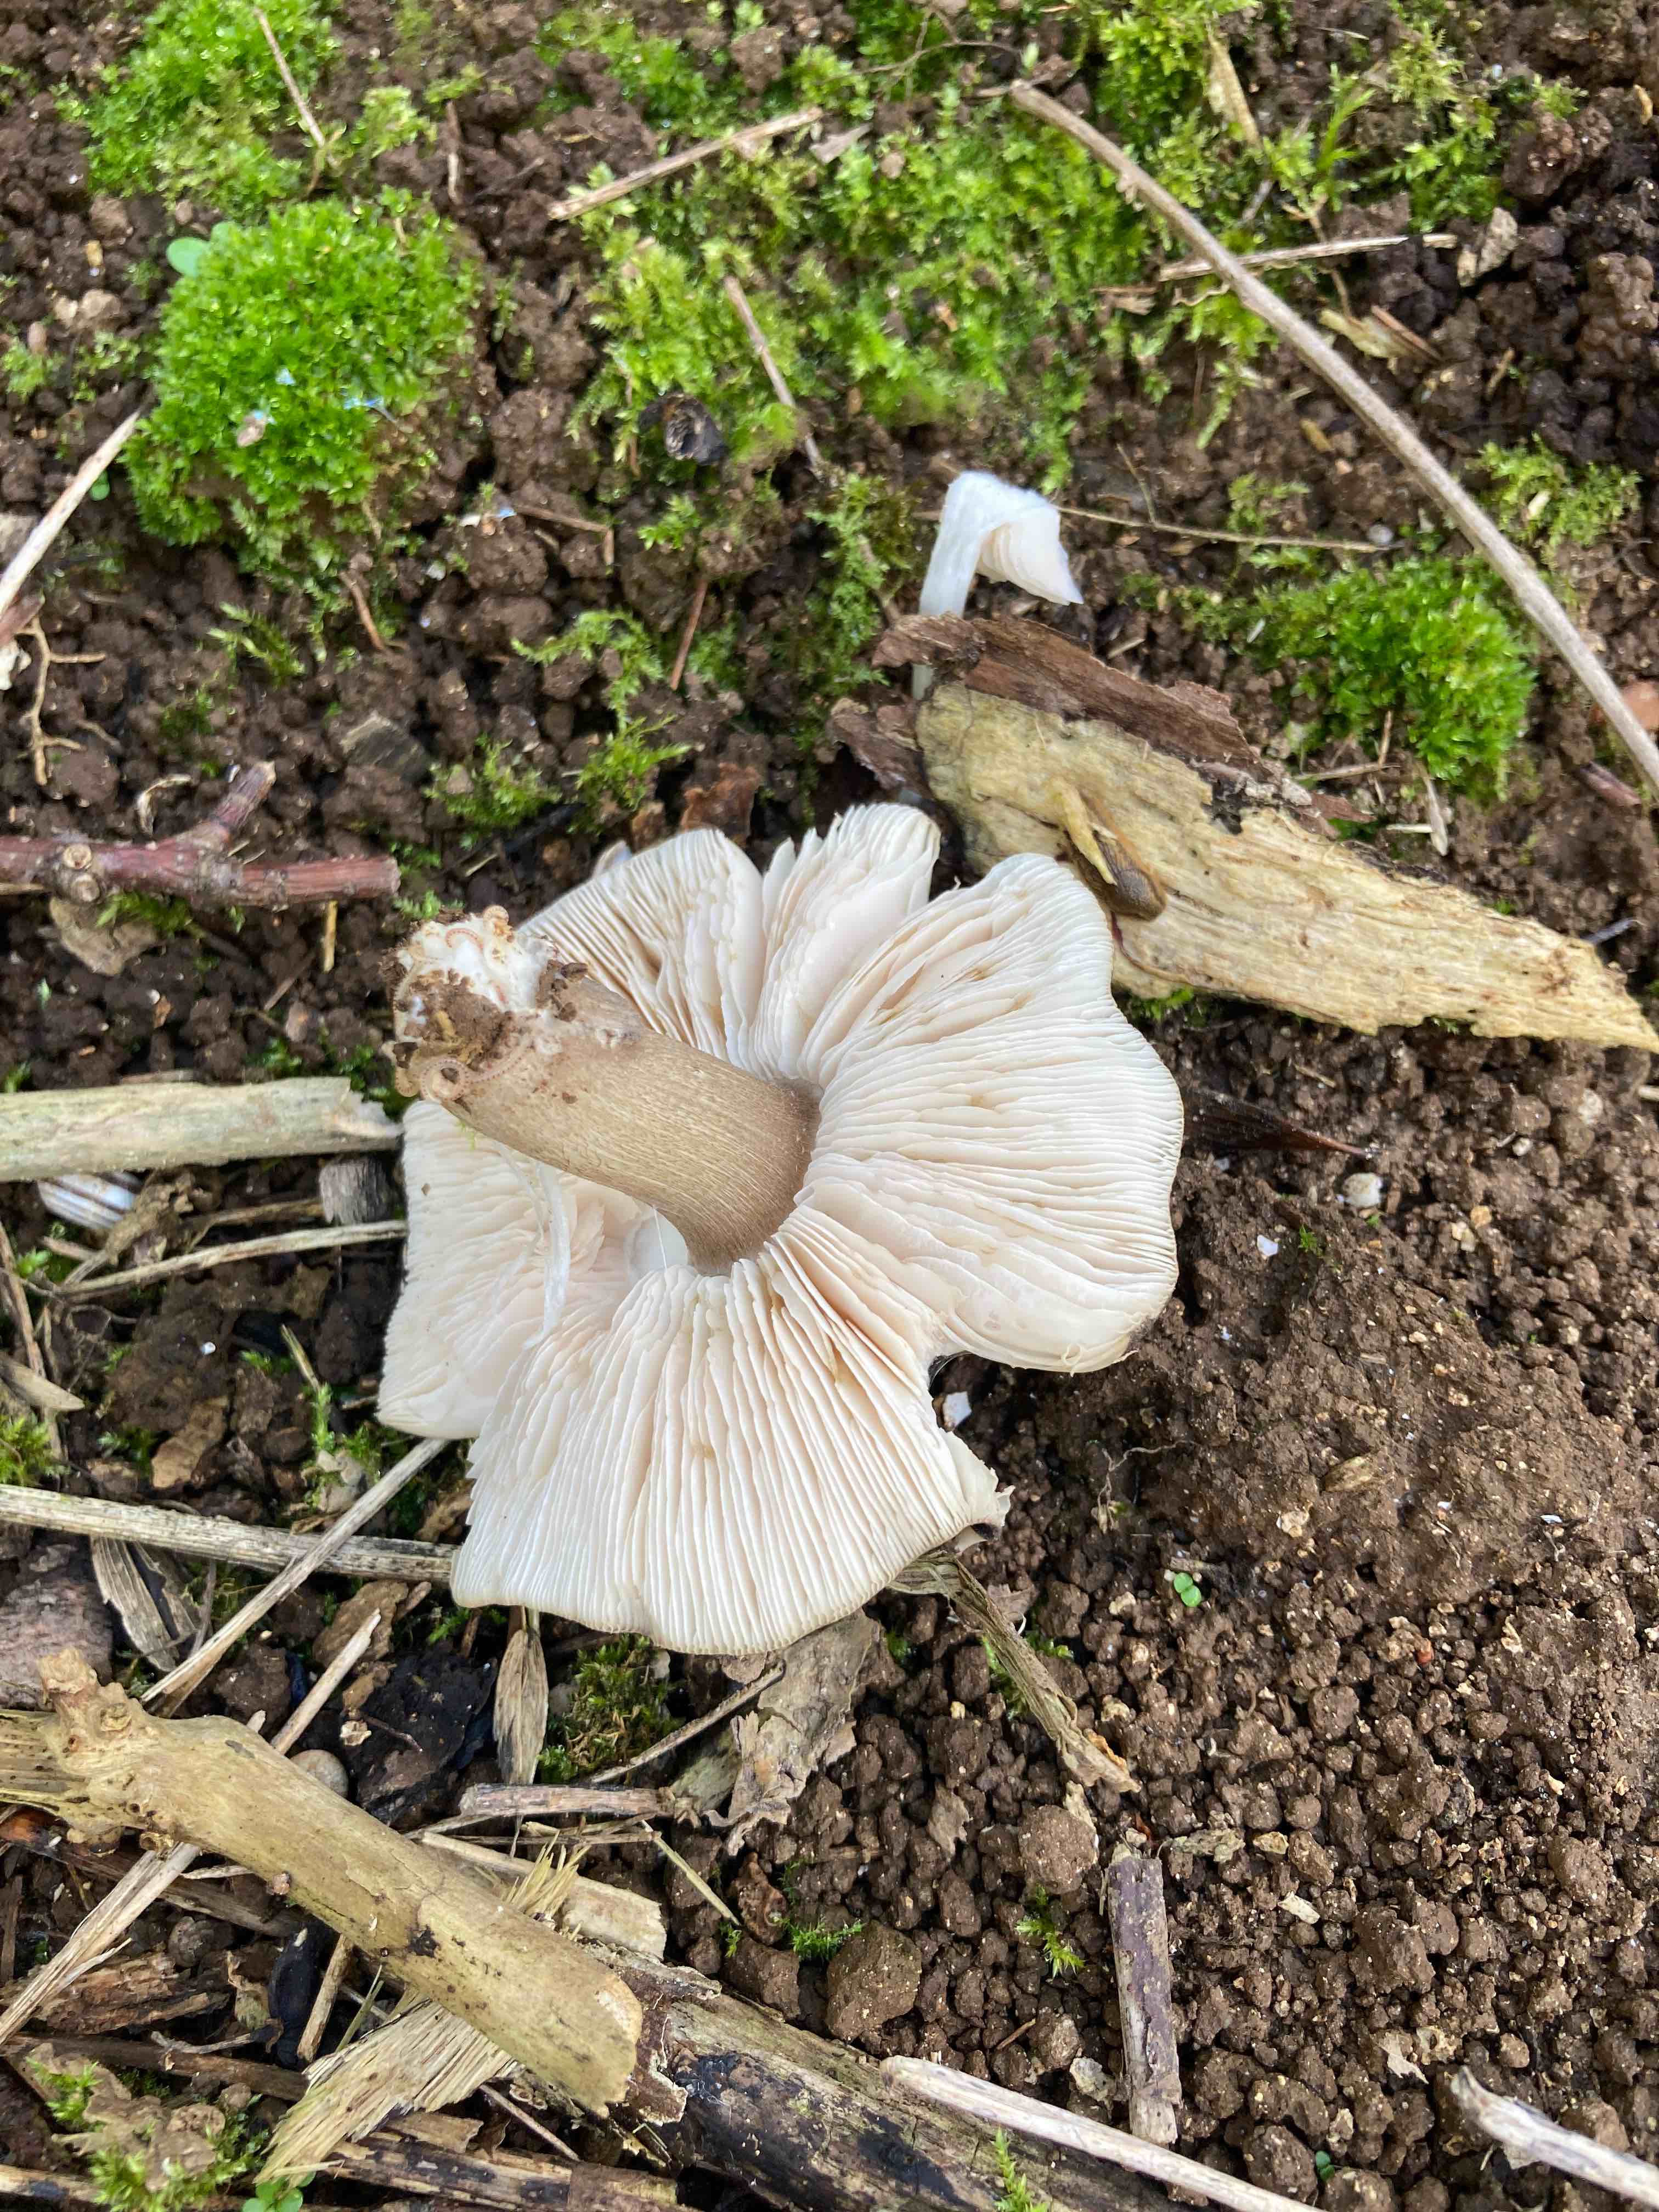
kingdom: Fungi
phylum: Basidiomycota
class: Agaricomycetes
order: Agaricales
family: Tricholomataceae
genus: Tricholoma
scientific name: Tricholoma
